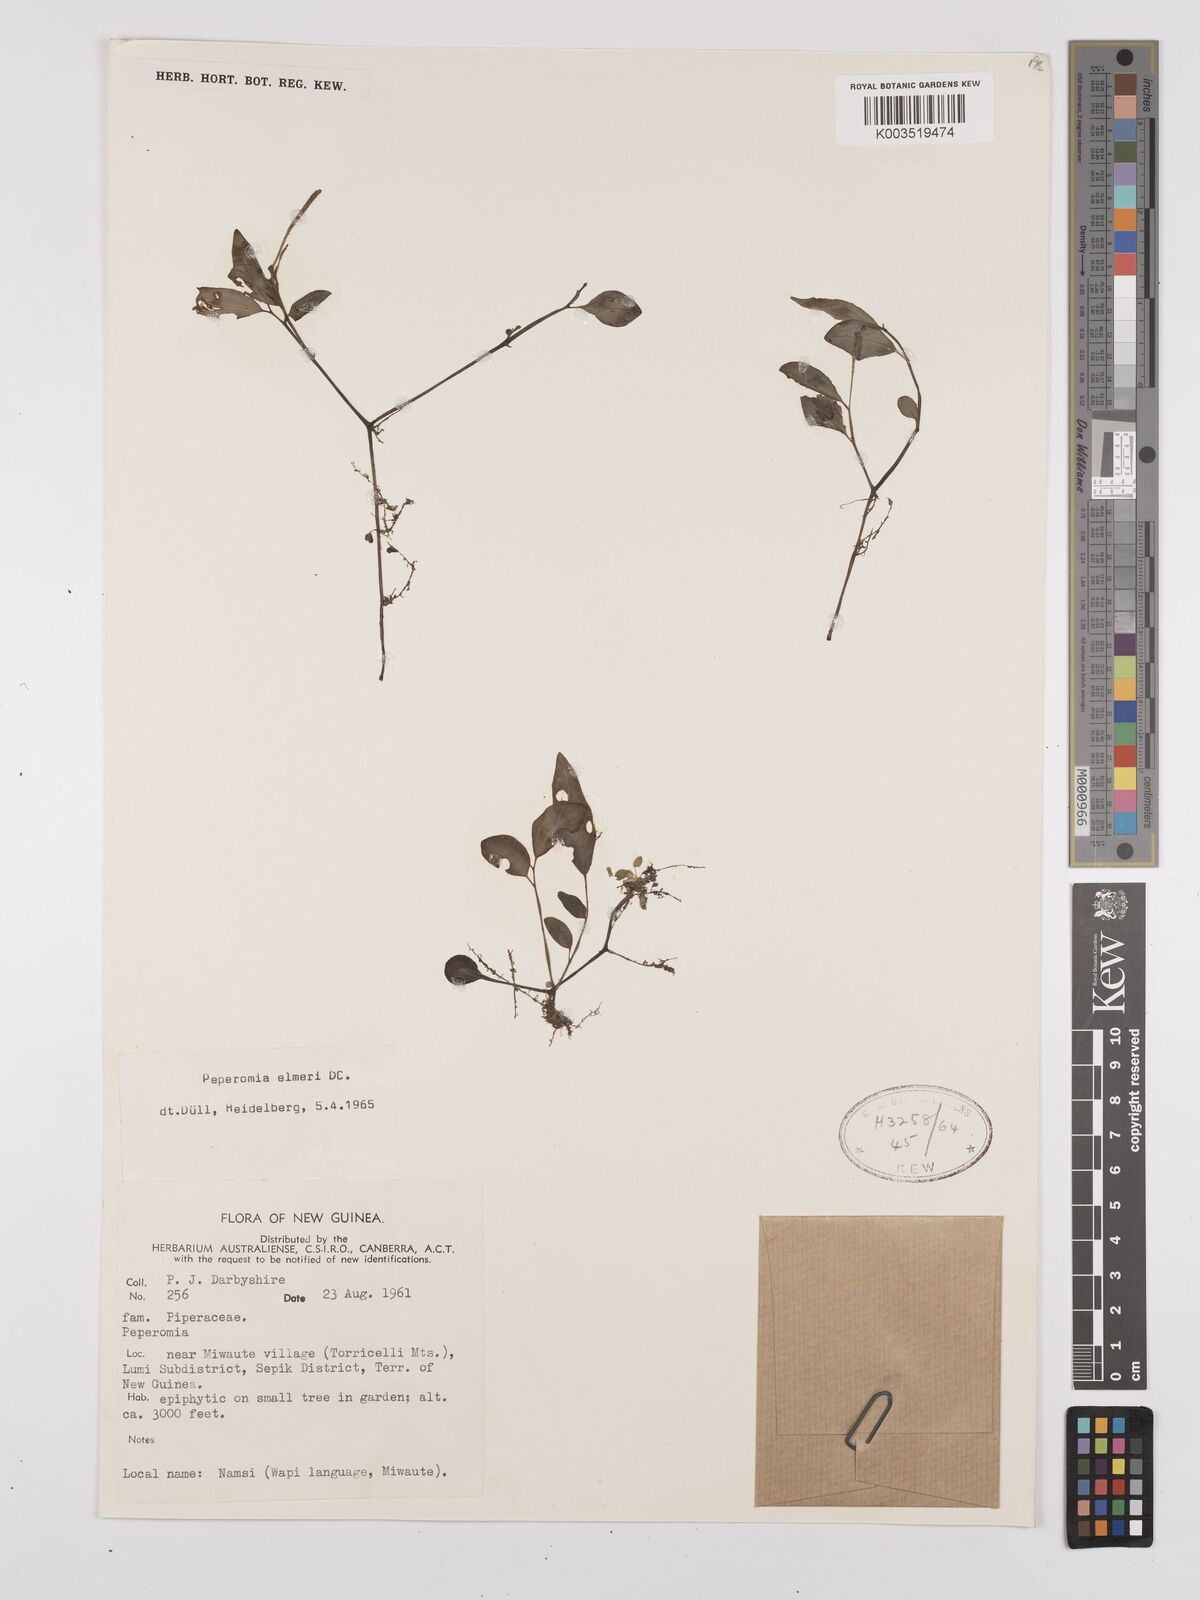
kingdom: Plantae
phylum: Tracheophyta
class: Magnoliopsida
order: Piperales
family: Piperaceae
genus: Peperomia
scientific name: Peperomia elmeri
